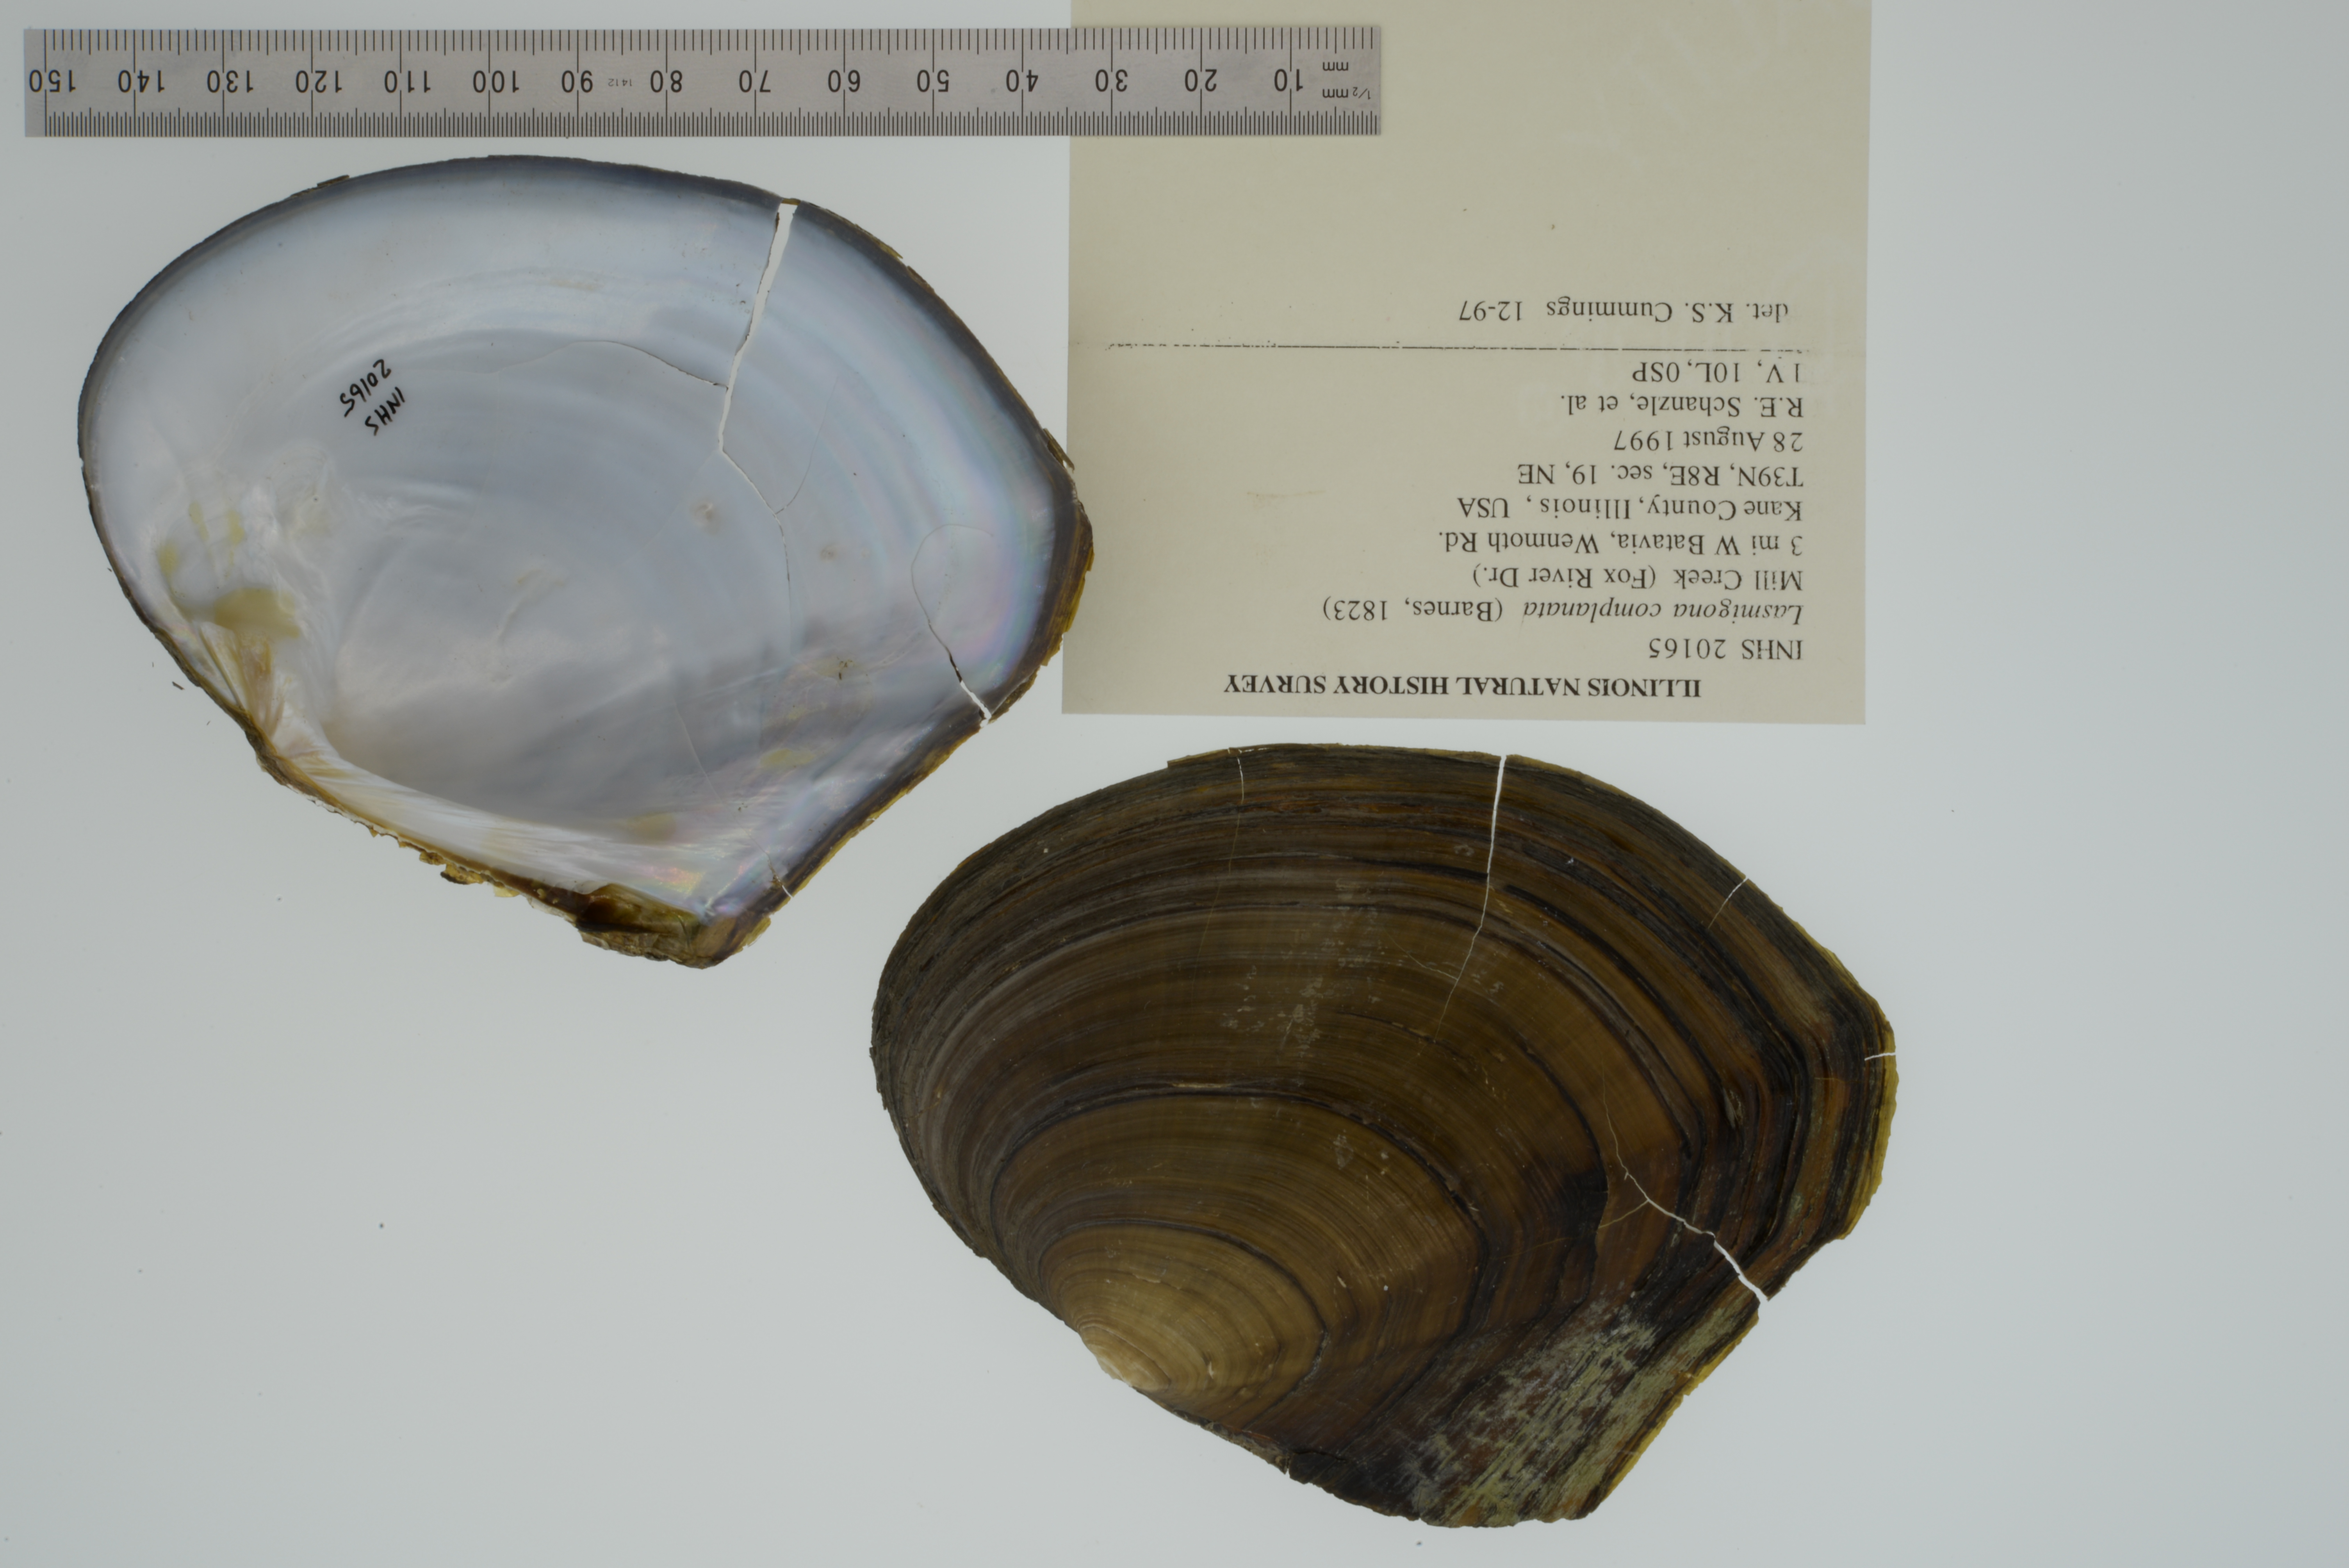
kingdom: Animalia
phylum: Mollusca
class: Bivalvia
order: Unionida
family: Unionidae
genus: Lasmigona
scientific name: Lasmigona complanata
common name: White heelsplitter
